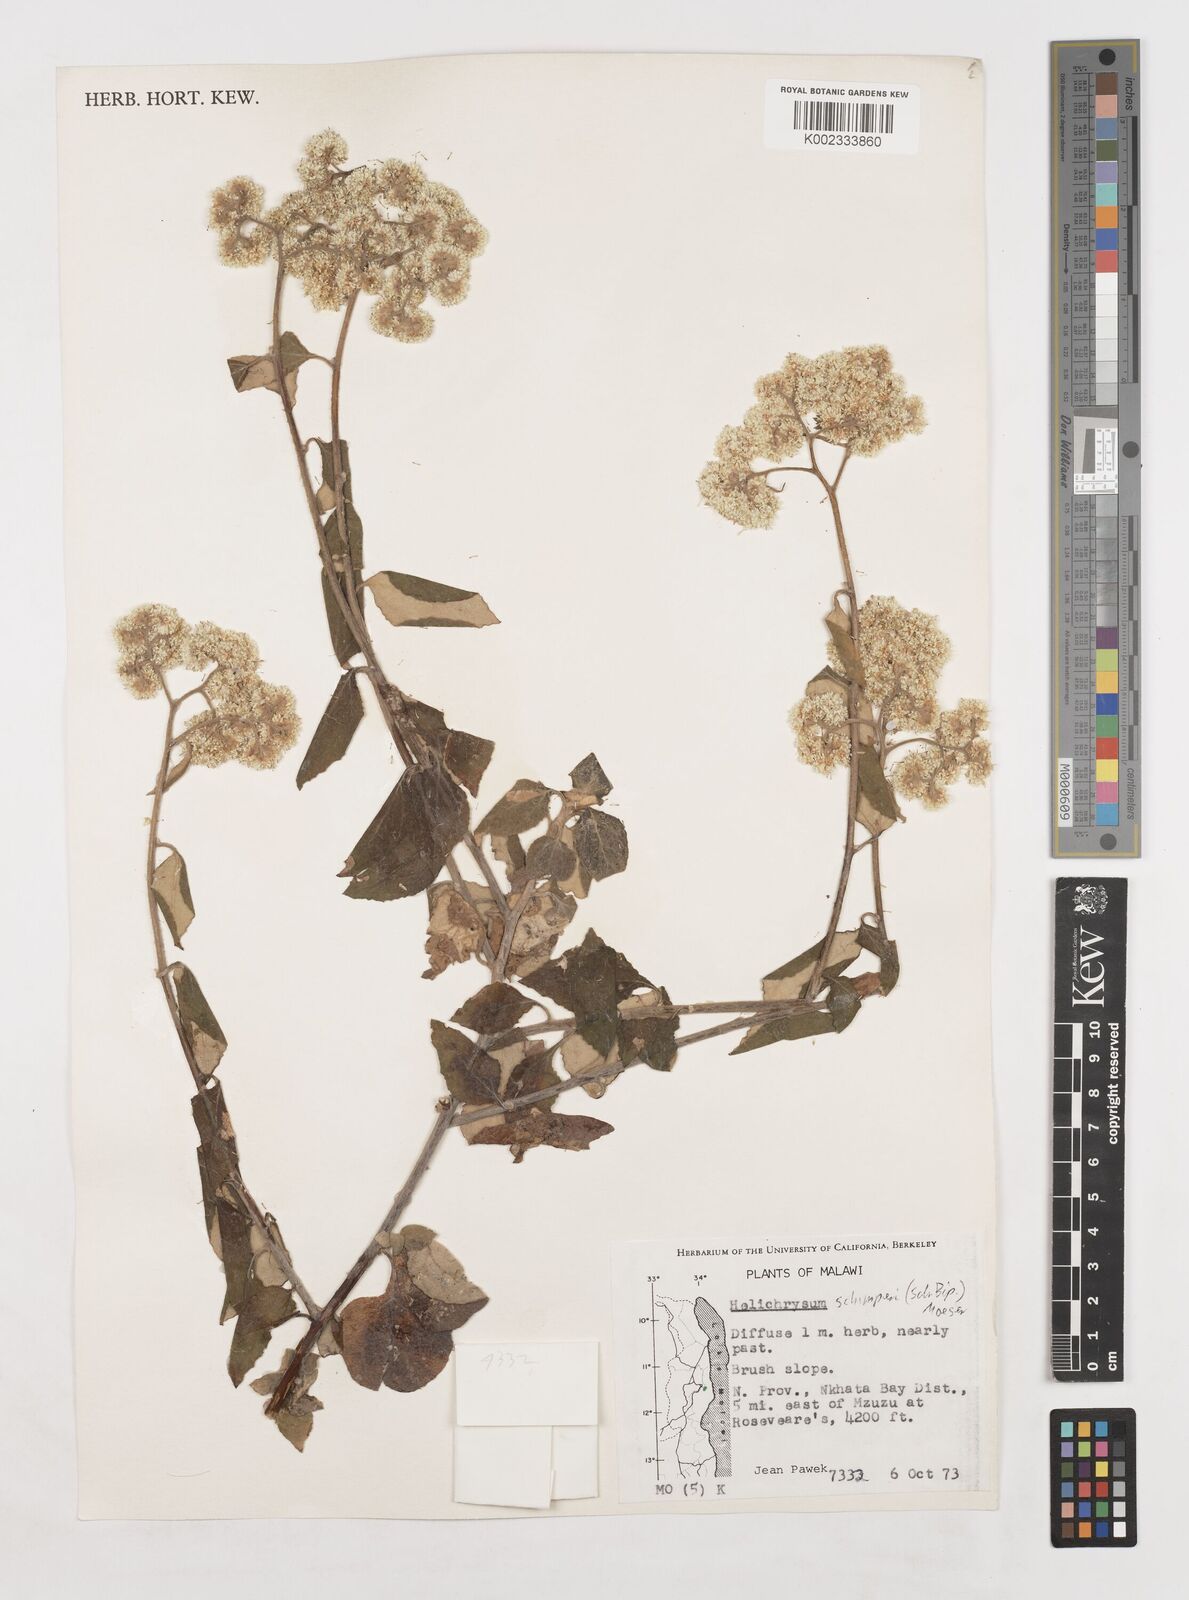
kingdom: Plantae
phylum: Tracheophyta
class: Magnoliopsida
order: Asterales
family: Asteraceae
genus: Helichrysum
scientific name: Helichrysum schimperi
